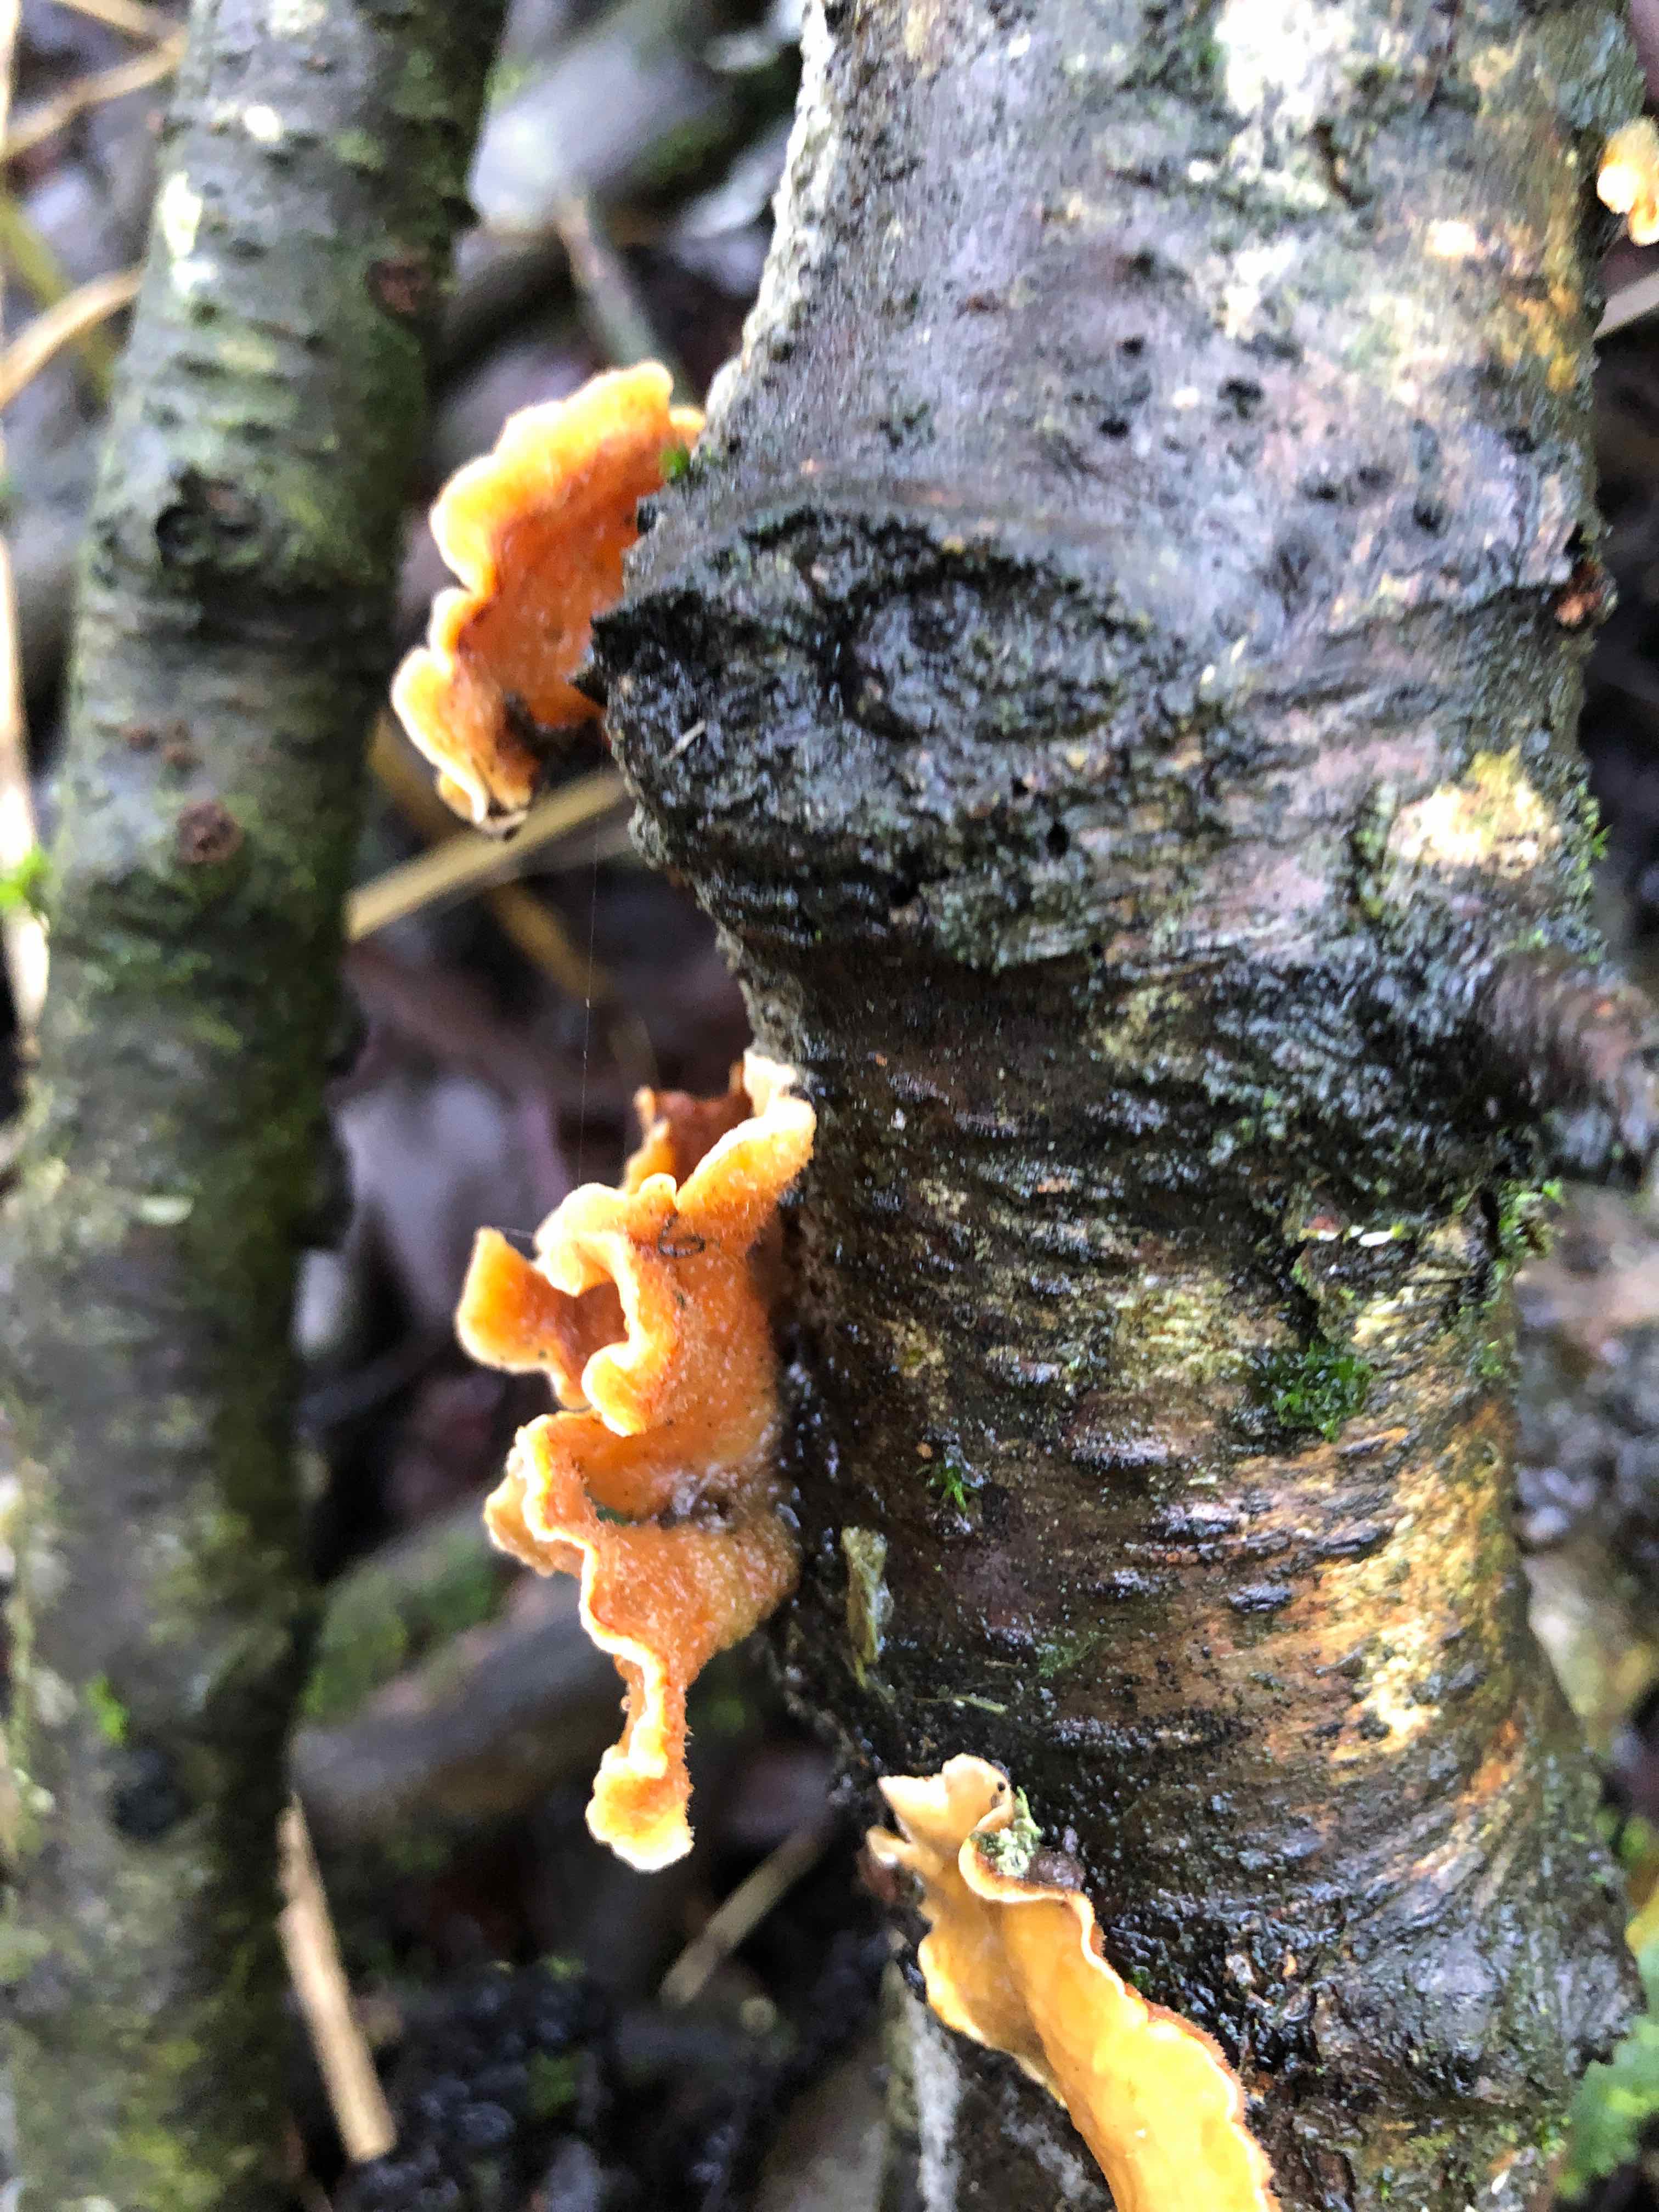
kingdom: Fungi
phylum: Basidiomycota
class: Agaricomycetes
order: Russulales
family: Stereaceae
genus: Stereum
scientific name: Stereum hirsutum
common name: håret lædersvamp
